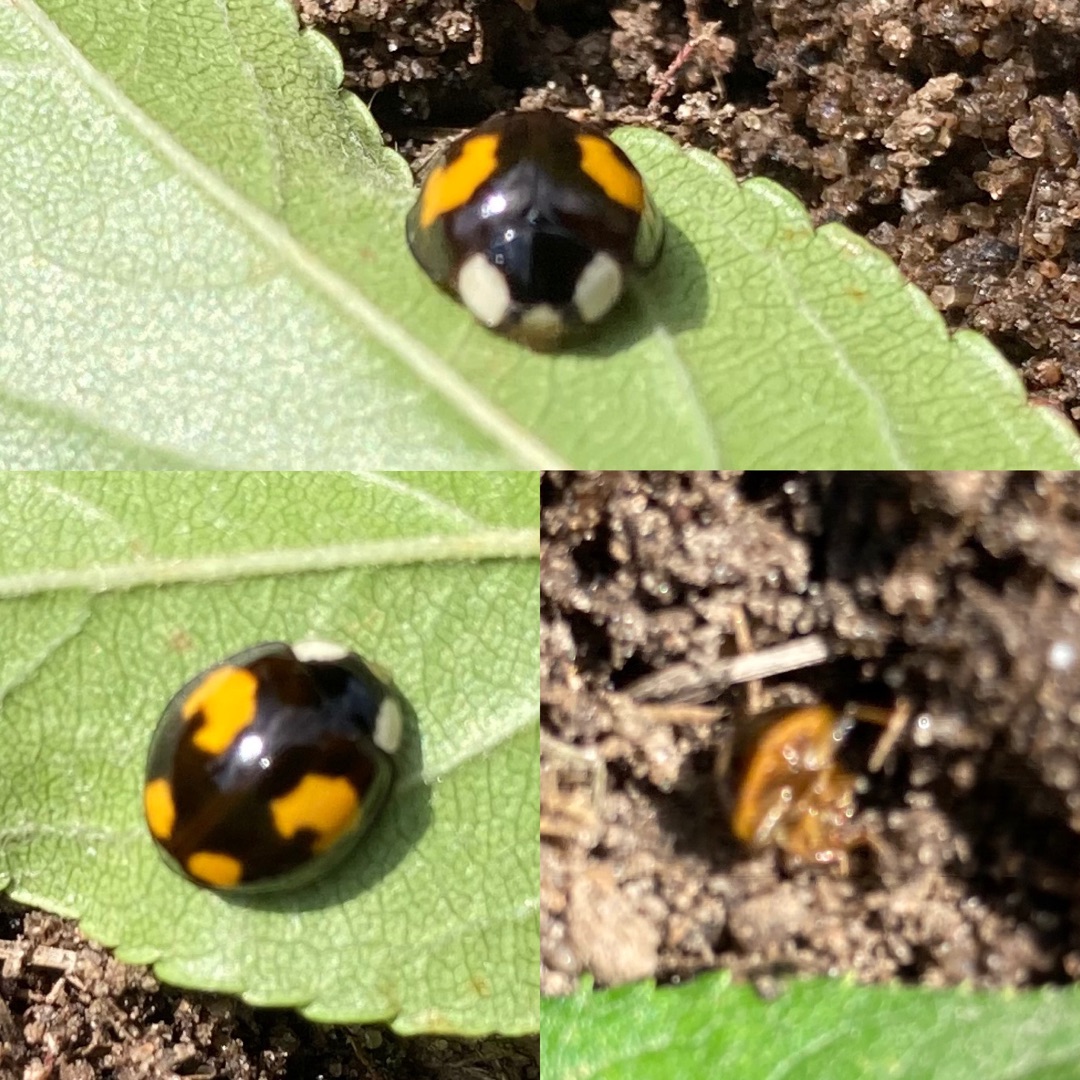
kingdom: Animalia
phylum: Arthropoda
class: Insecta
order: Coleoptera
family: Coccinellidae
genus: Harmonia
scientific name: Harmonia axyridis
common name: Harlekinmariehøne
